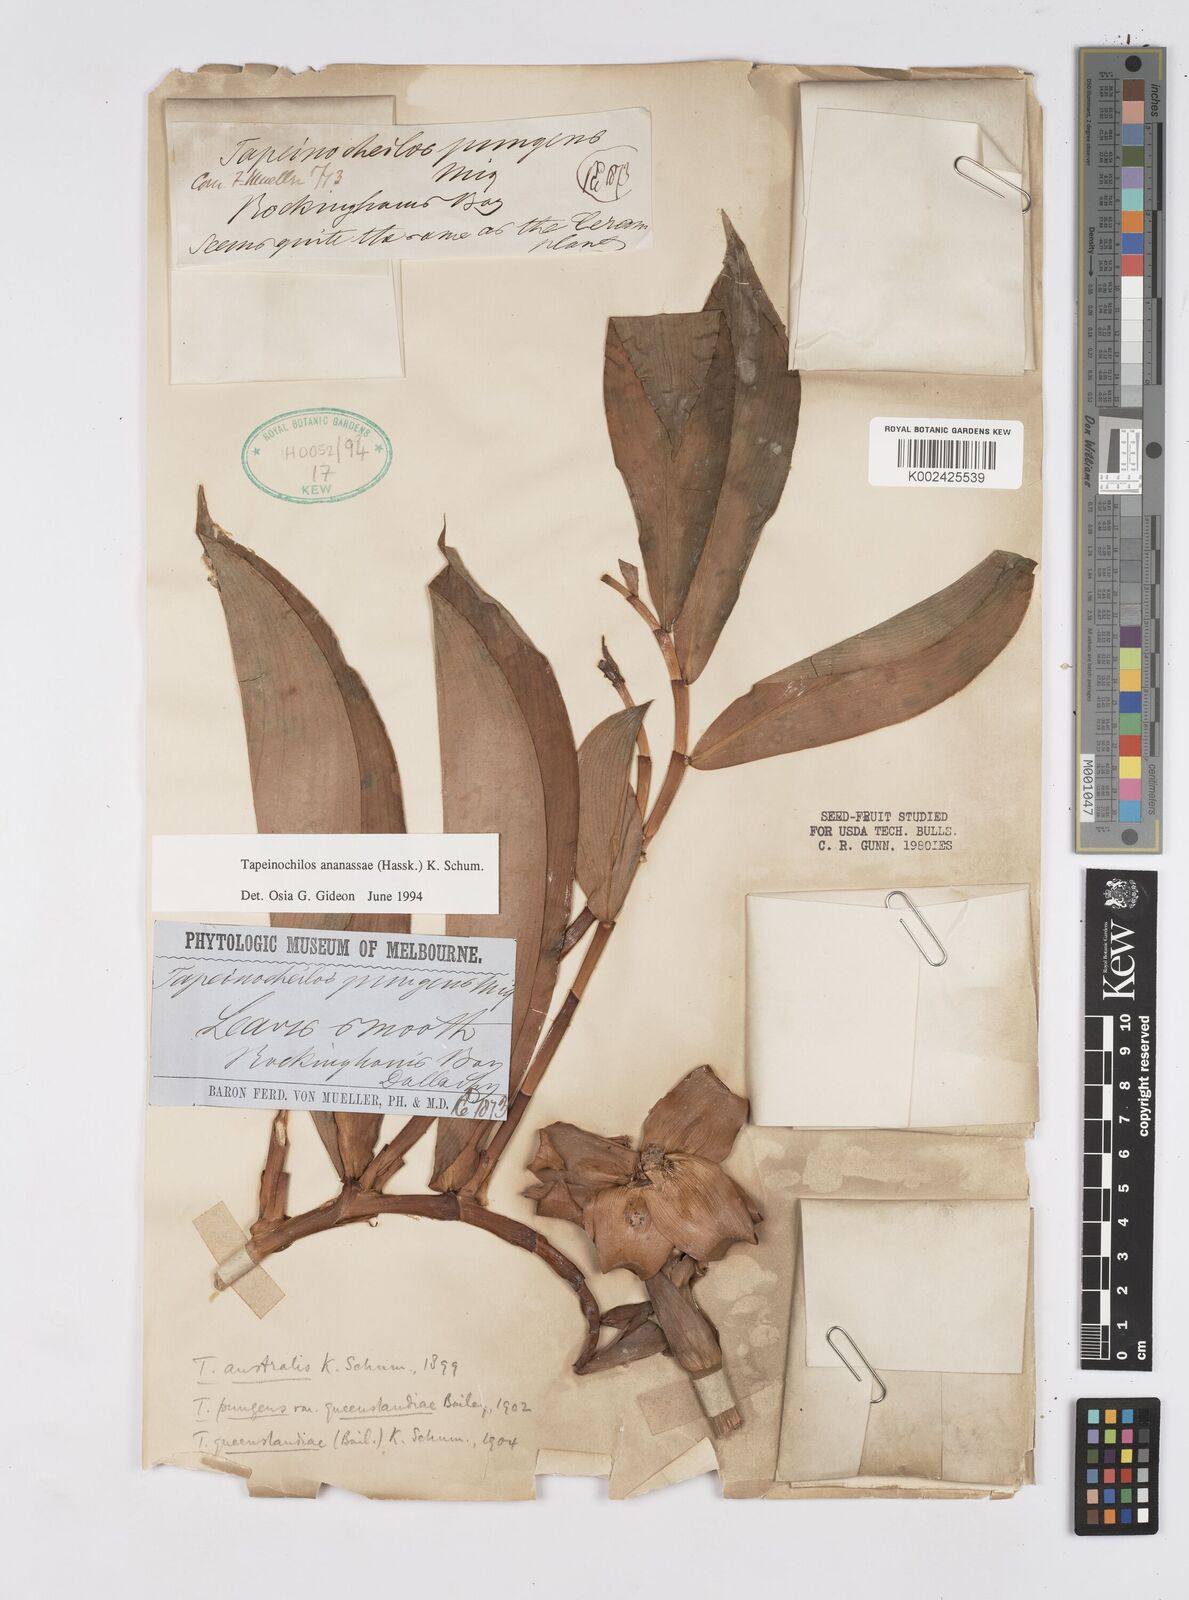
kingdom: Plantae
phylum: Tracheophyta
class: Liliopsida
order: Zingiberales
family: Costaceae
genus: Tapeinochilos
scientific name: Tapeinochilos ananassae
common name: Torch-ginger
